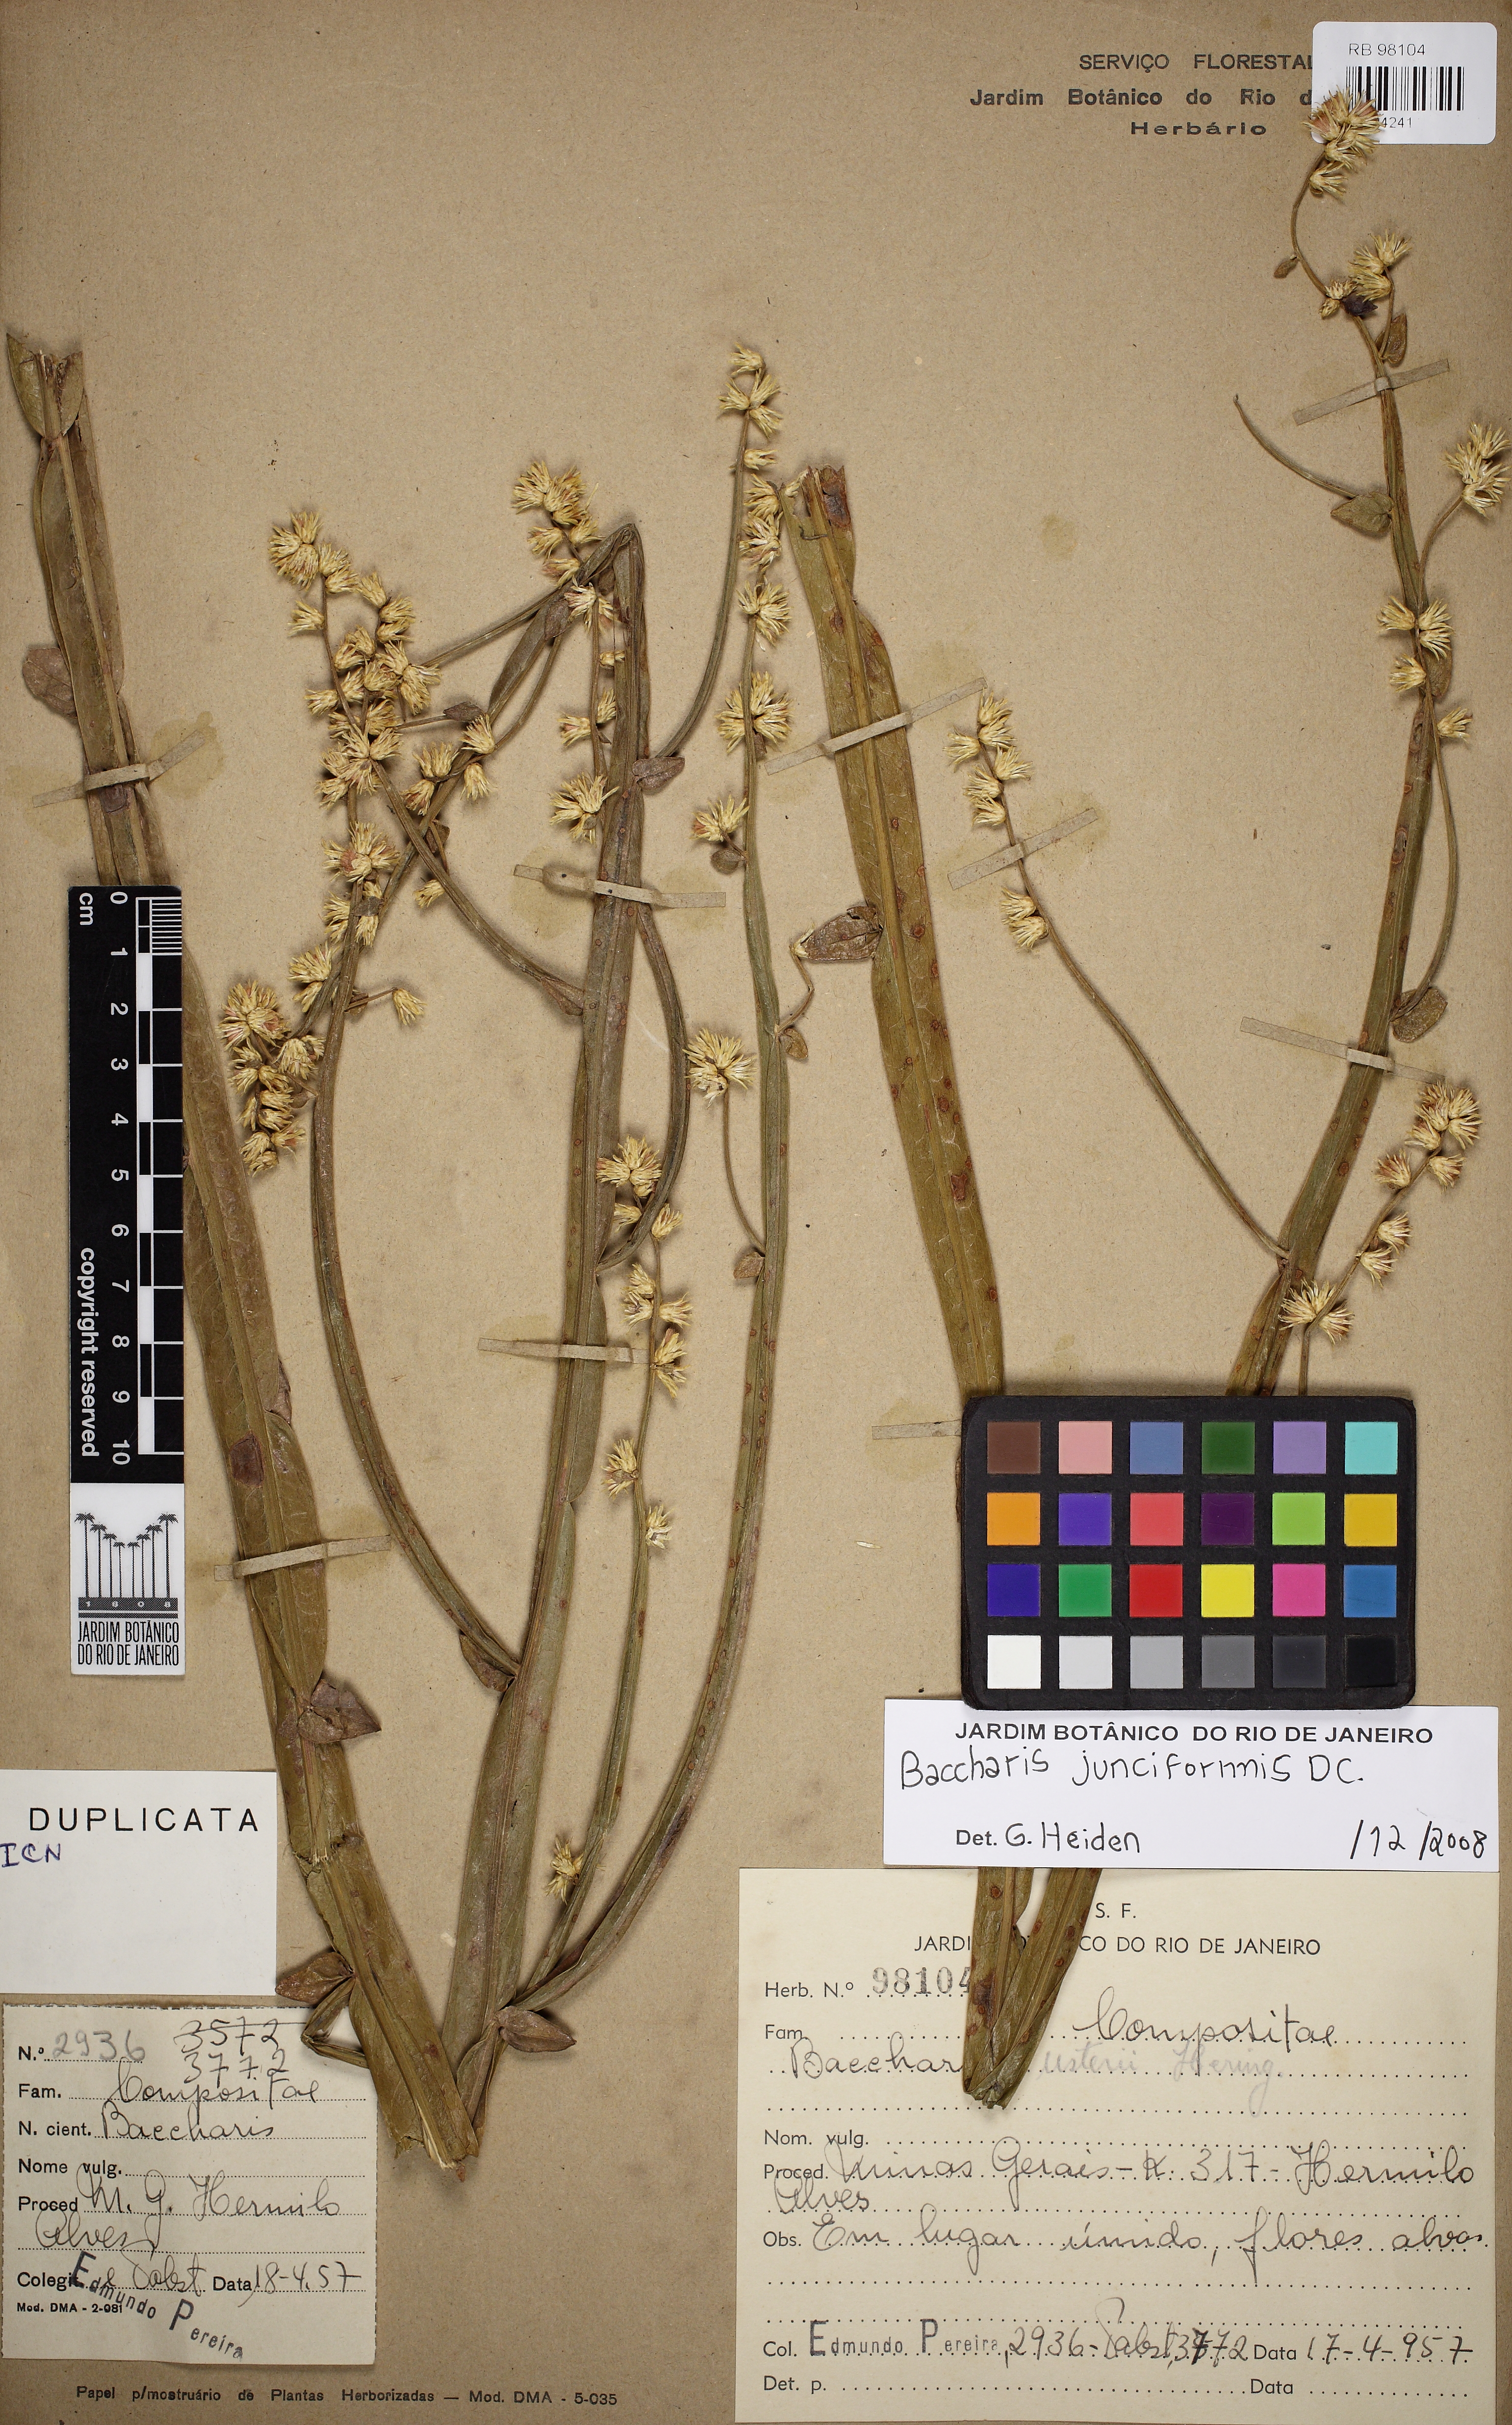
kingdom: Plantae
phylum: Tracheophyta
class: Magnoliopsida
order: Asterales
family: Asteraceae
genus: Baccharis
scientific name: Baccharis junciformis
